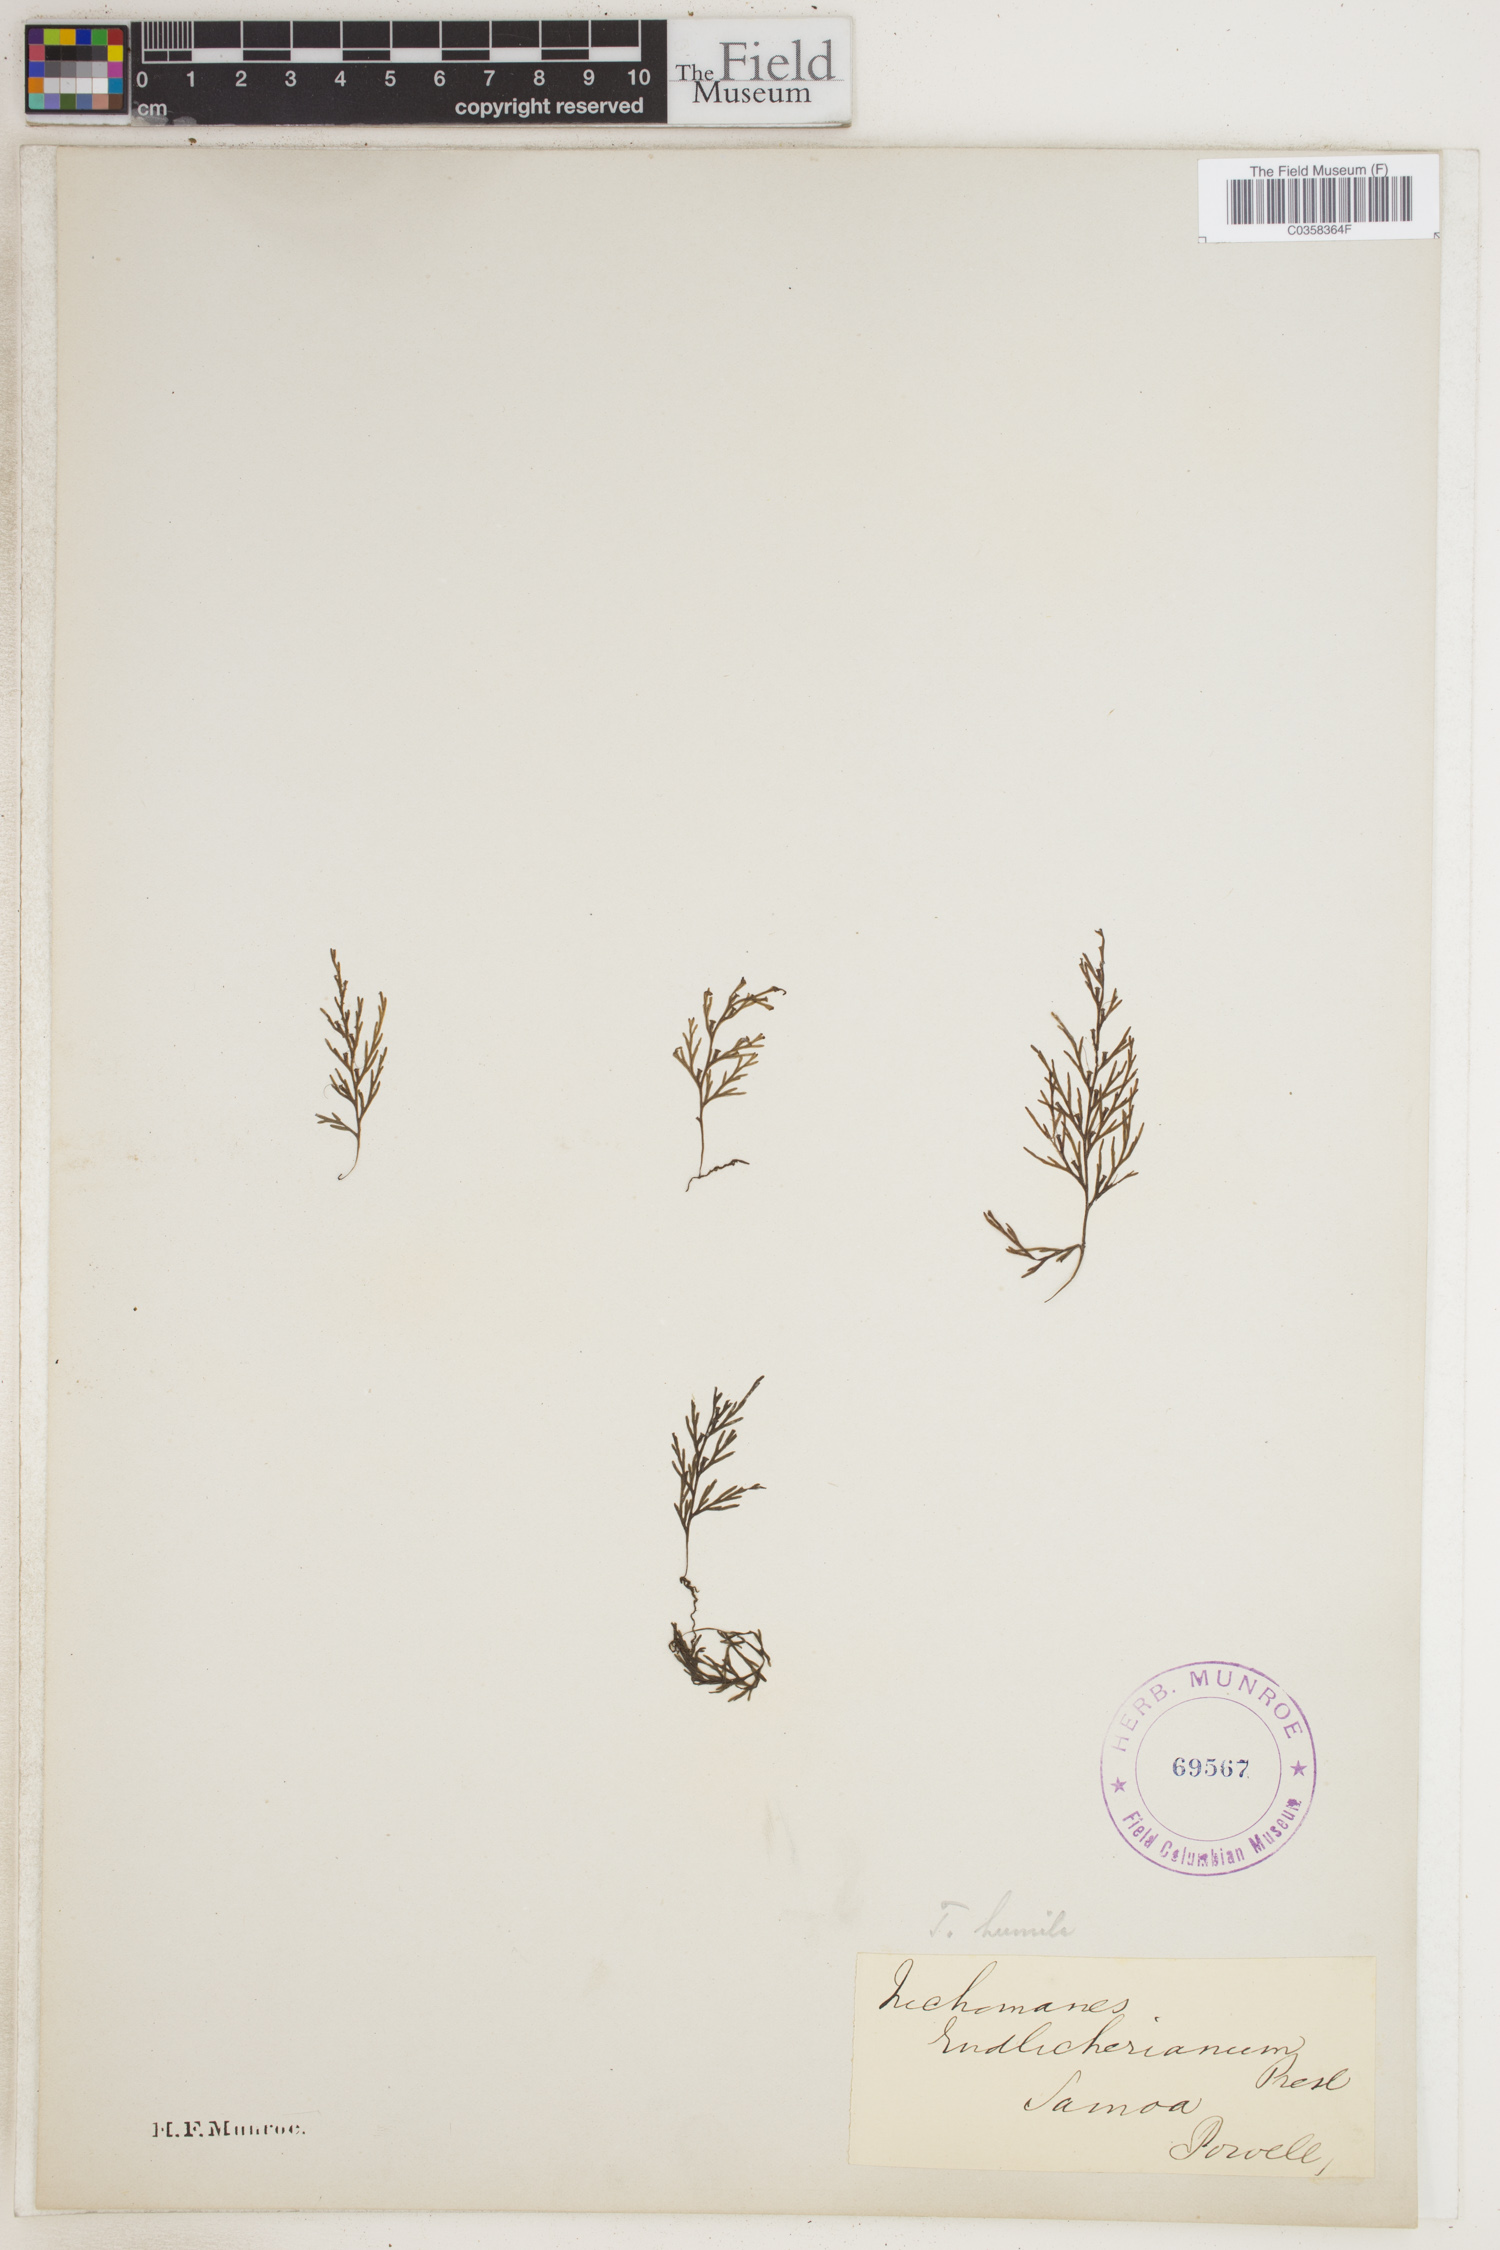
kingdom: Plantae
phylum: Tracheophyta
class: Polypodiopsida
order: Hymenophyllales
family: Hymenophyllaceae
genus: Crepidomanes
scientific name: Crepidomanes humile
